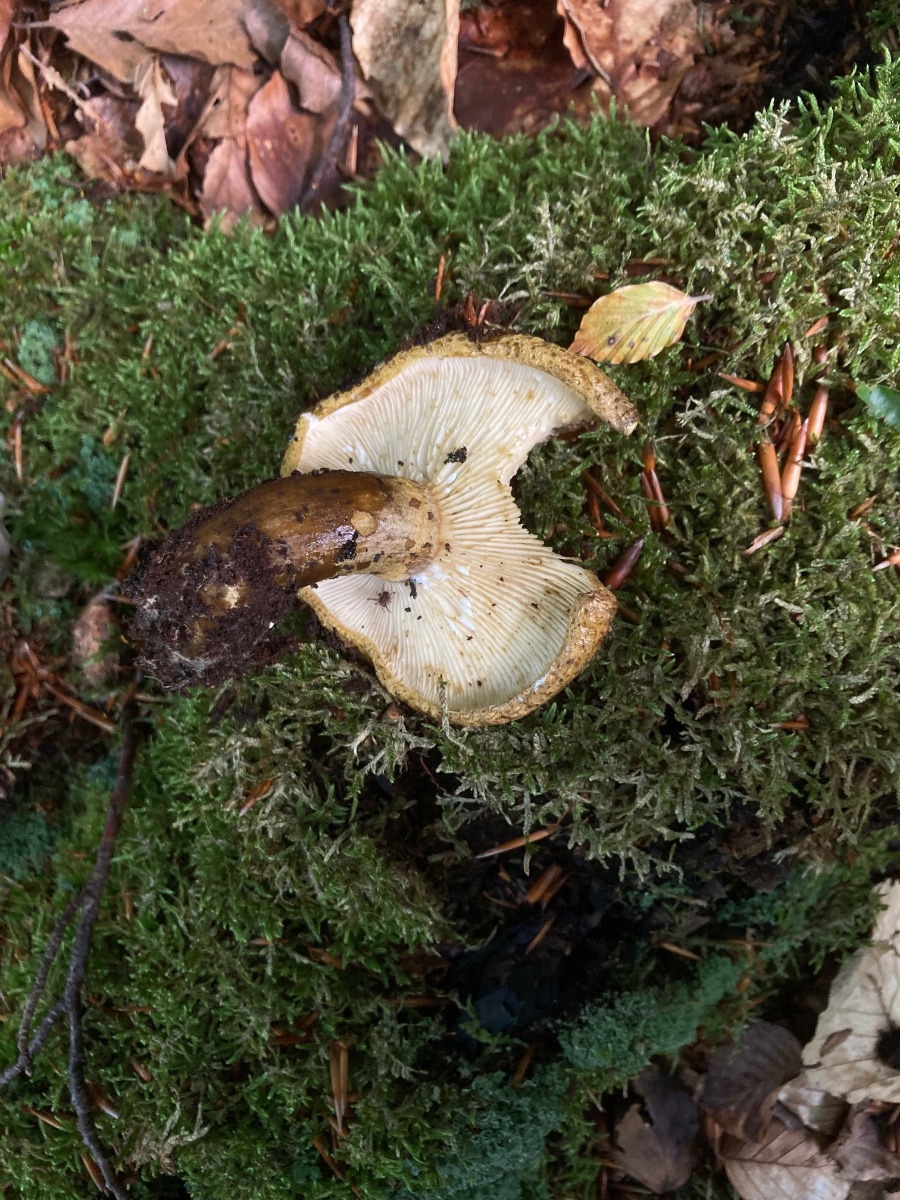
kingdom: Fungi
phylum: Basidiomycota
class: Agaricomycetes
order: Russulales
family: Russulaceae
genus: Lactarius
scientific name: Lactarius necator
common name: manddraber-mælkehat
